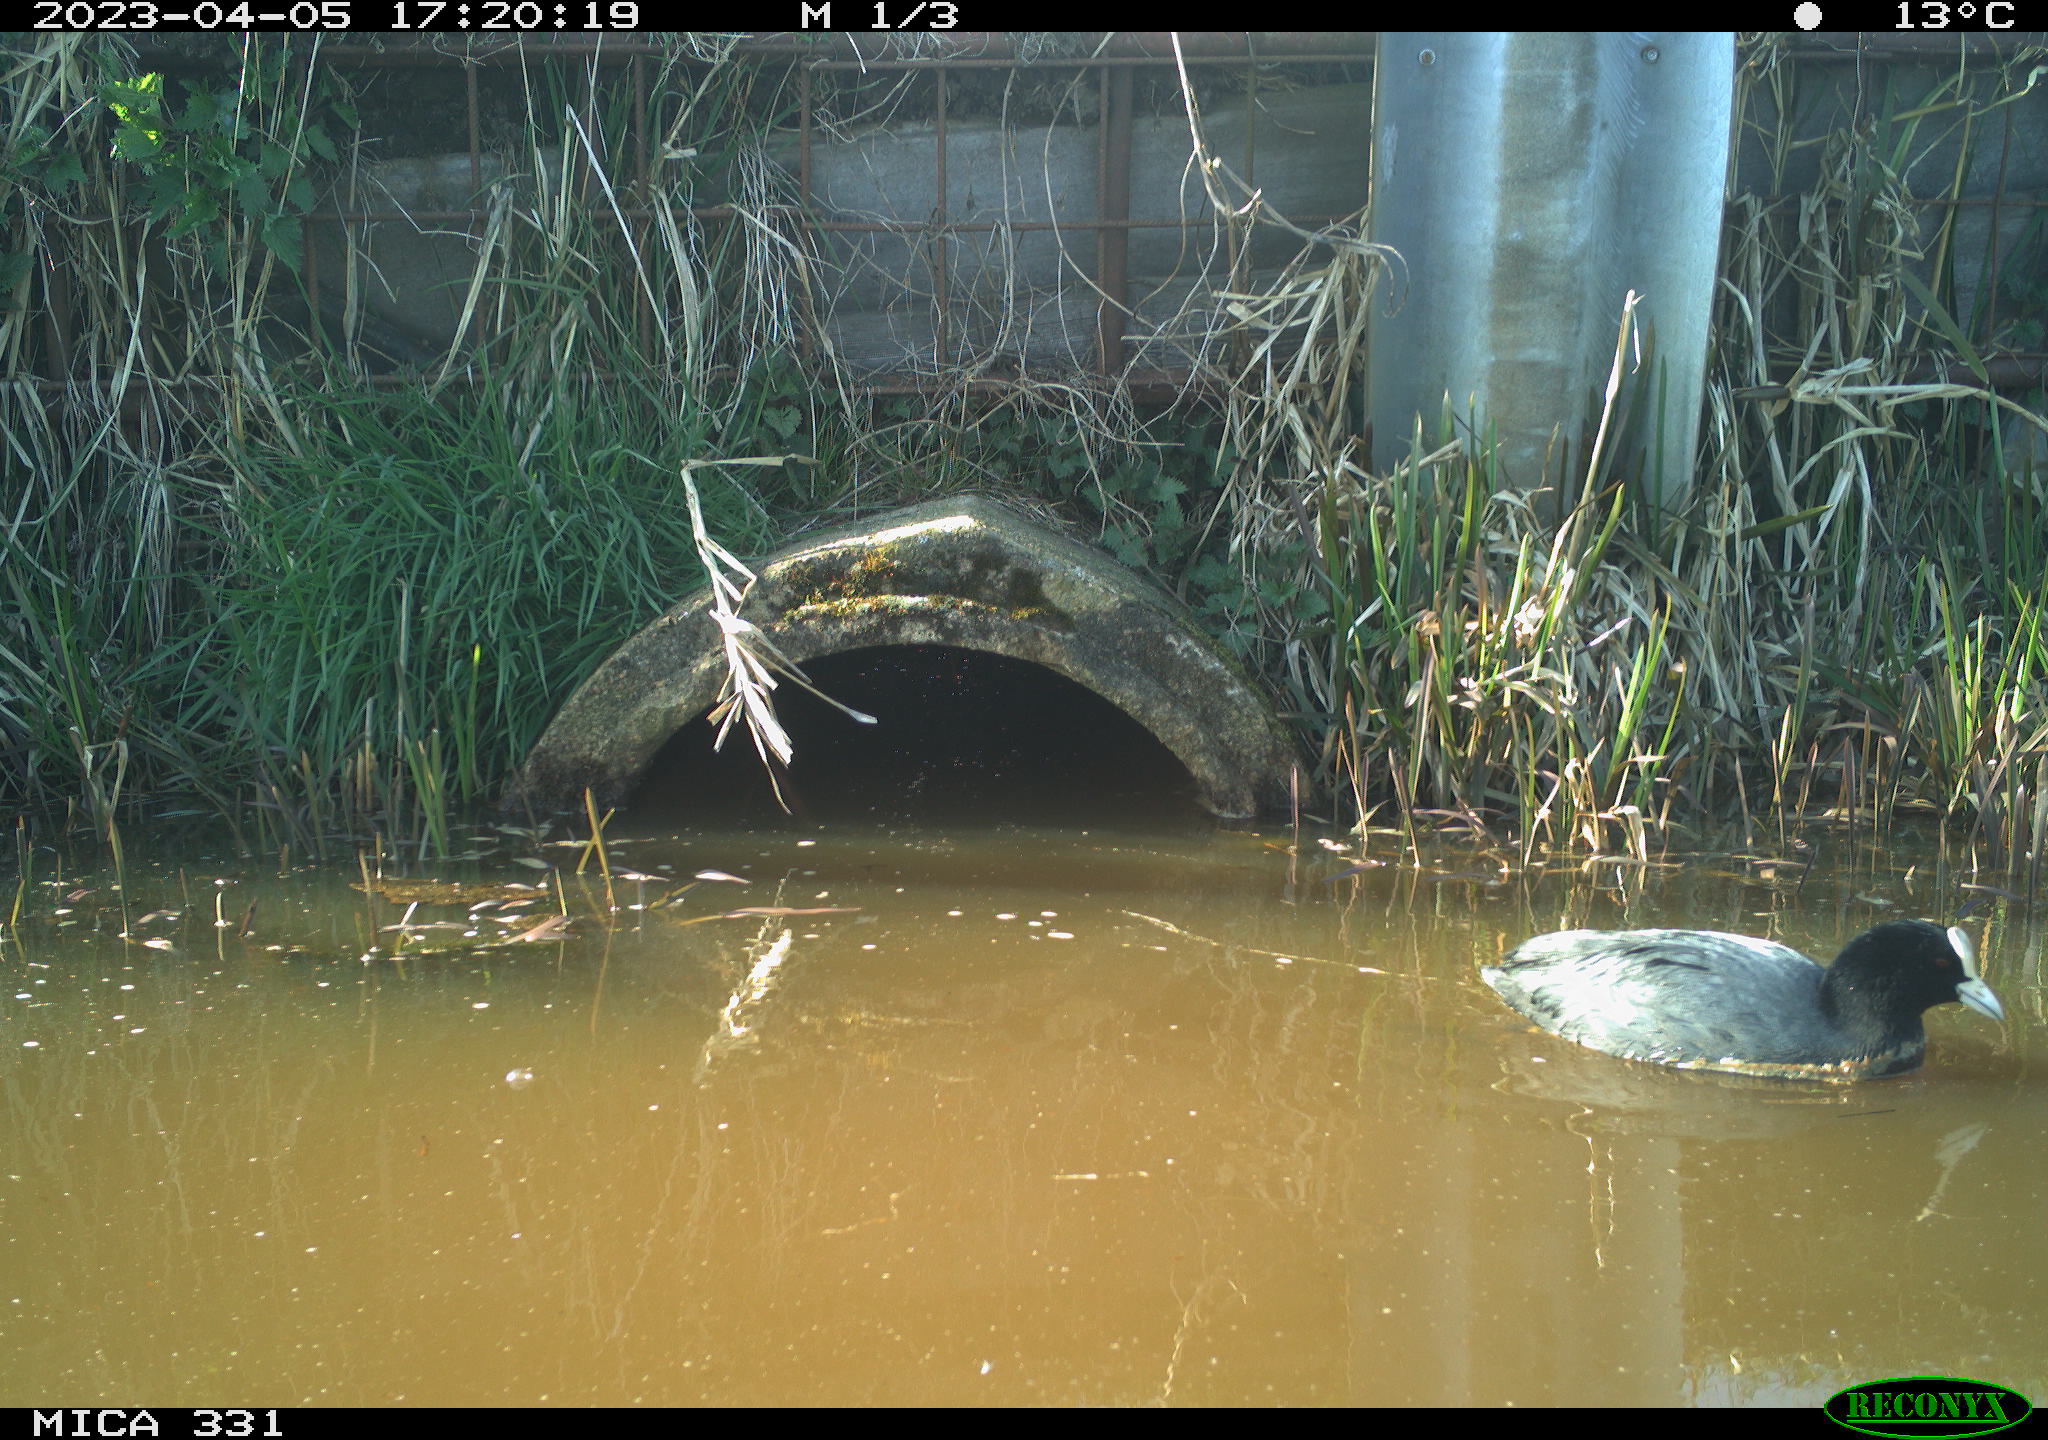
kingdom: Animalia
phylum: Chordata
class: Aves
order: Gruiformes
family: Rallidae
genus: Fulica
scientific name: Fulica atra
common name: Eurasian coot
